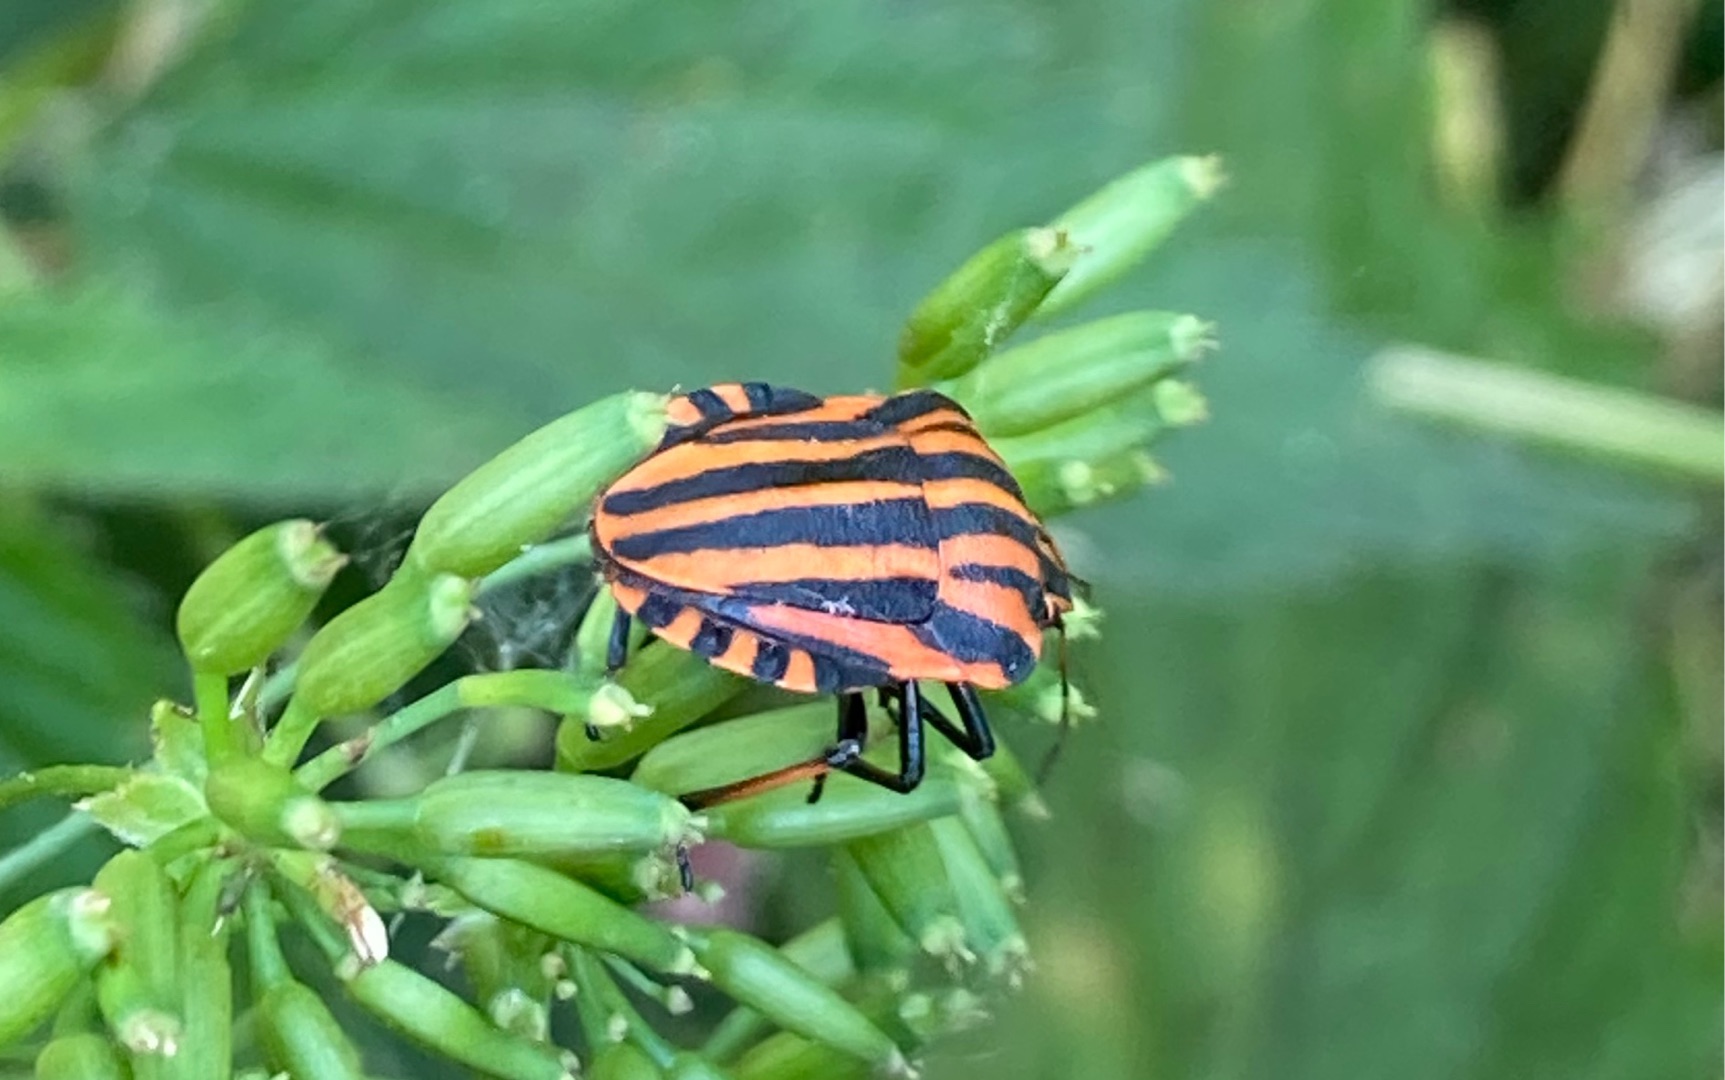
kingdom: Animalia
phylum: Arthropoda
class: Insecta
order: Hemiptera
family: Pentatomidae
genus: Graphosoma
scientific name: Graphosoma italicum
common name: Stribetæge
